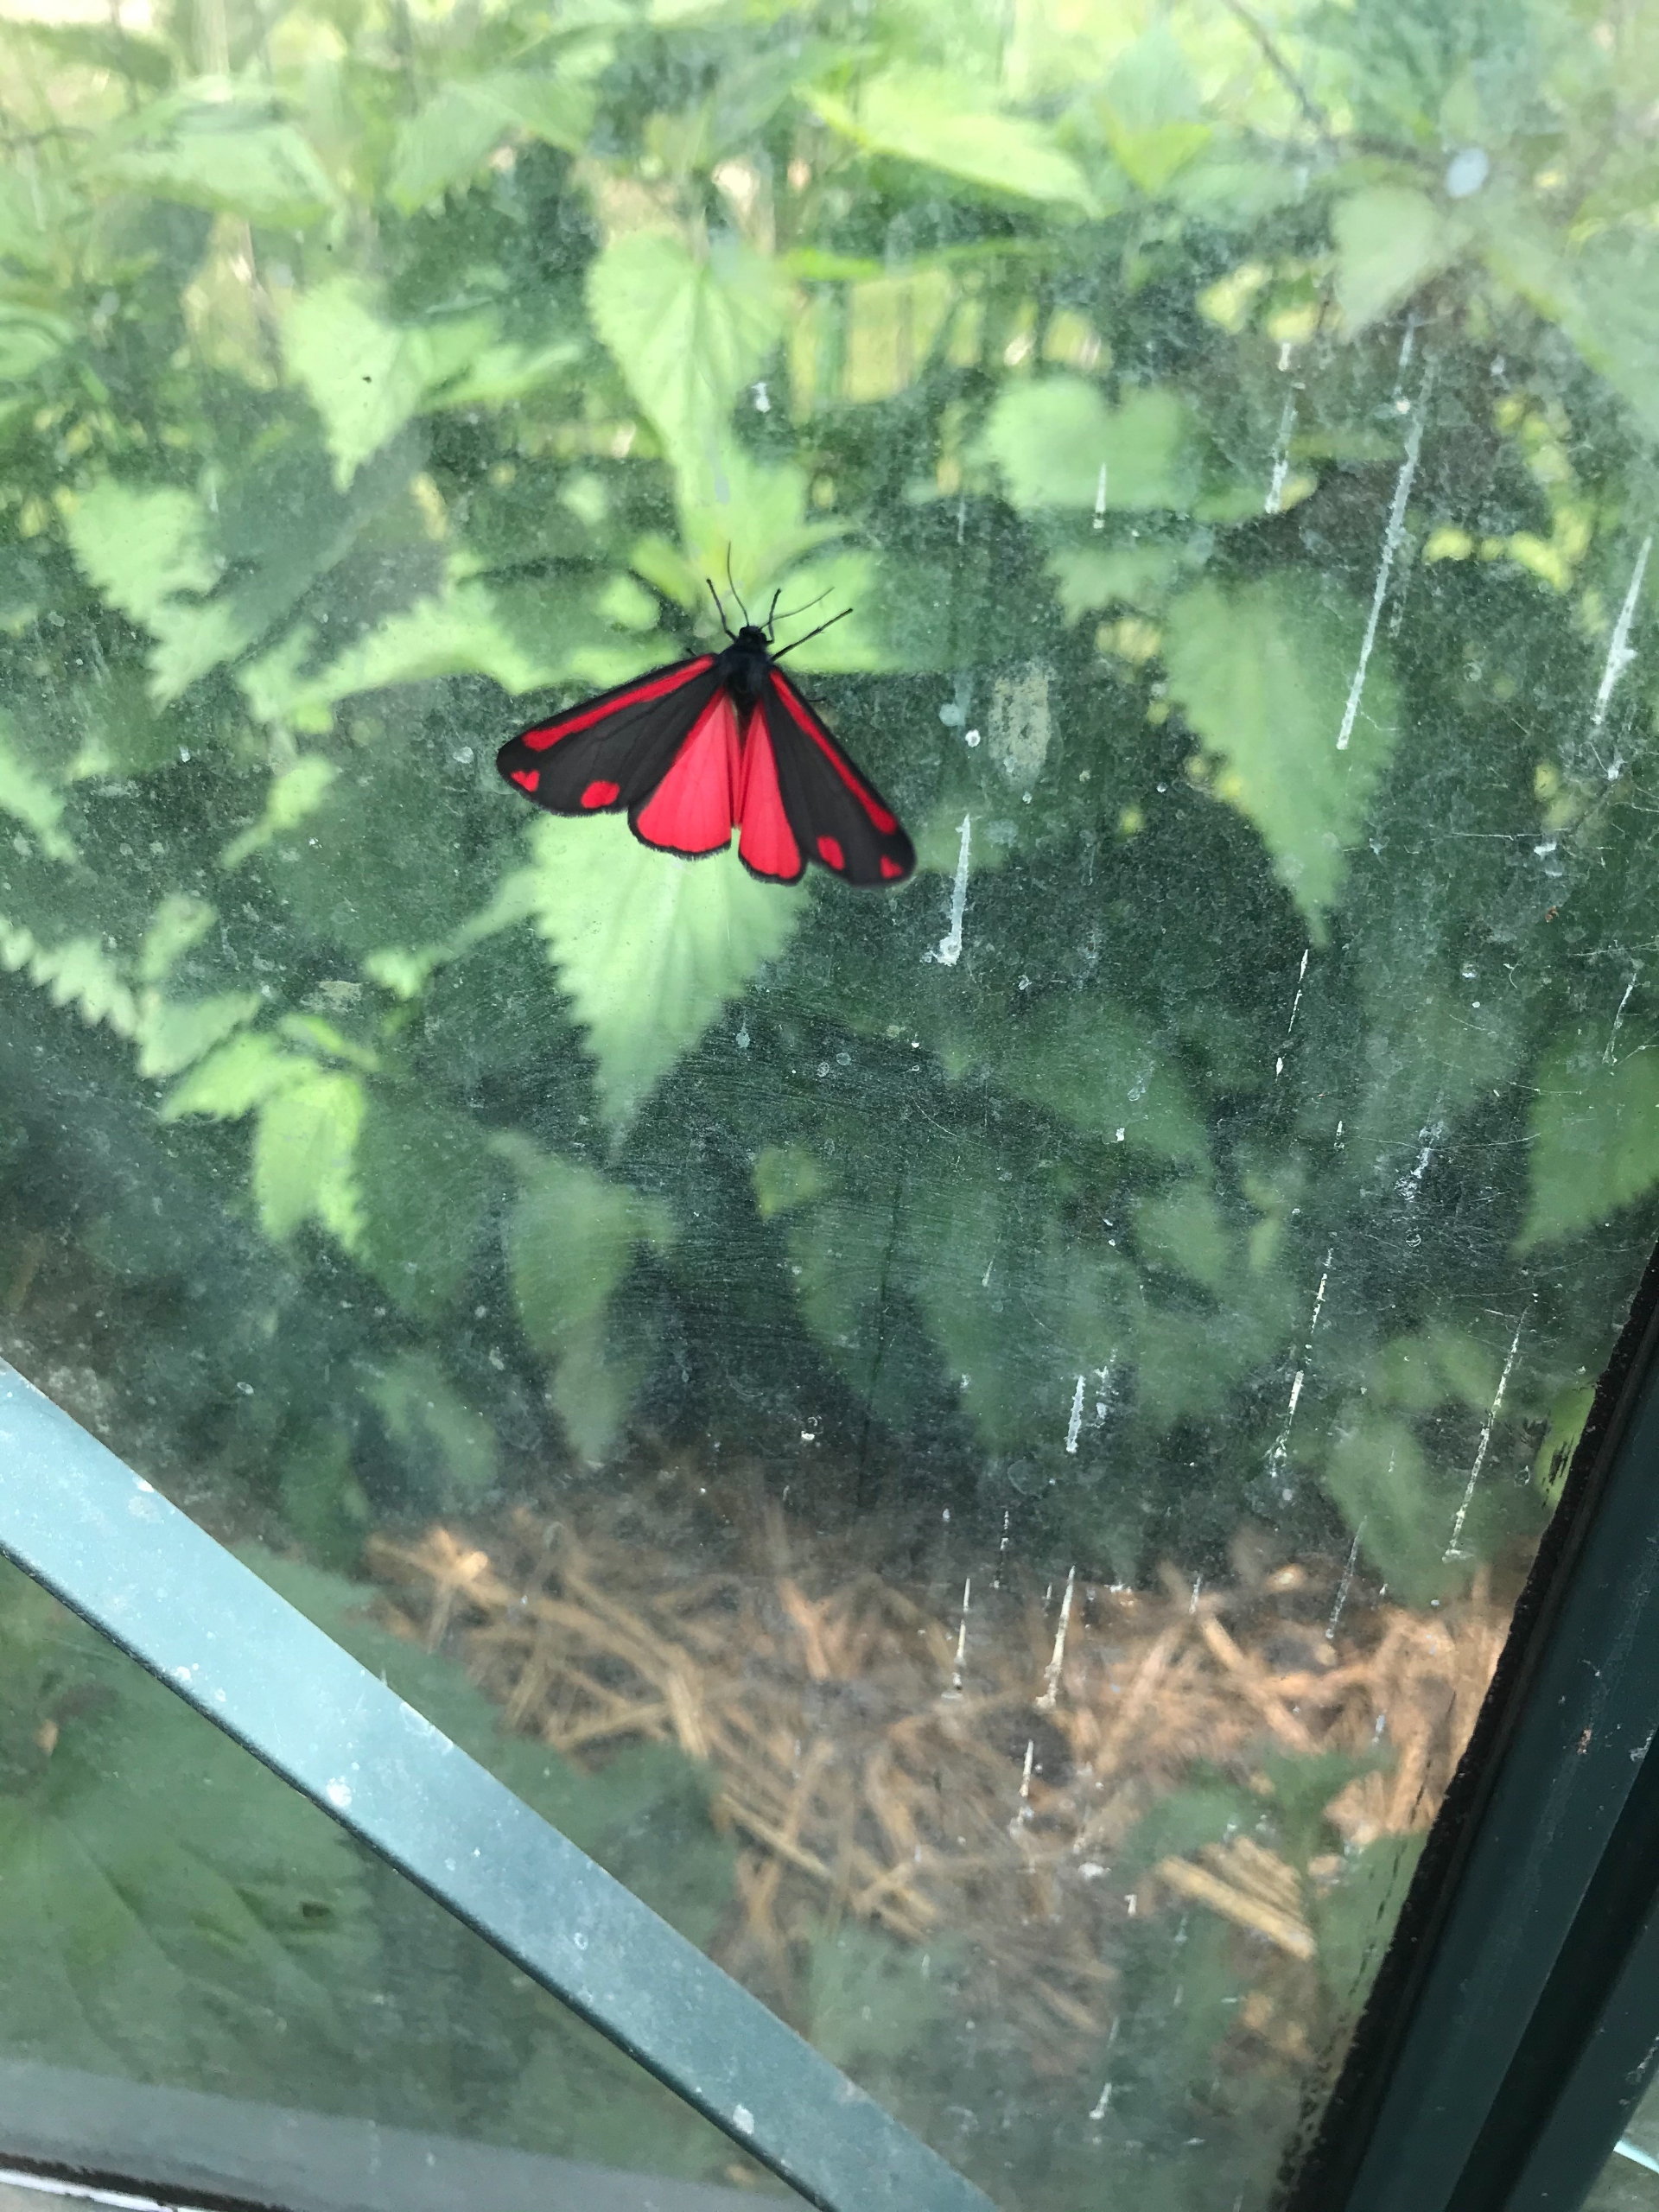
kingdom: Animalia
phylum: Arthropoda
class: Insecta
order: Lepidoptera
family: Erebidae
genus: Tyria
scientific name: Tyria jacobaeae
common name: Blodplet
